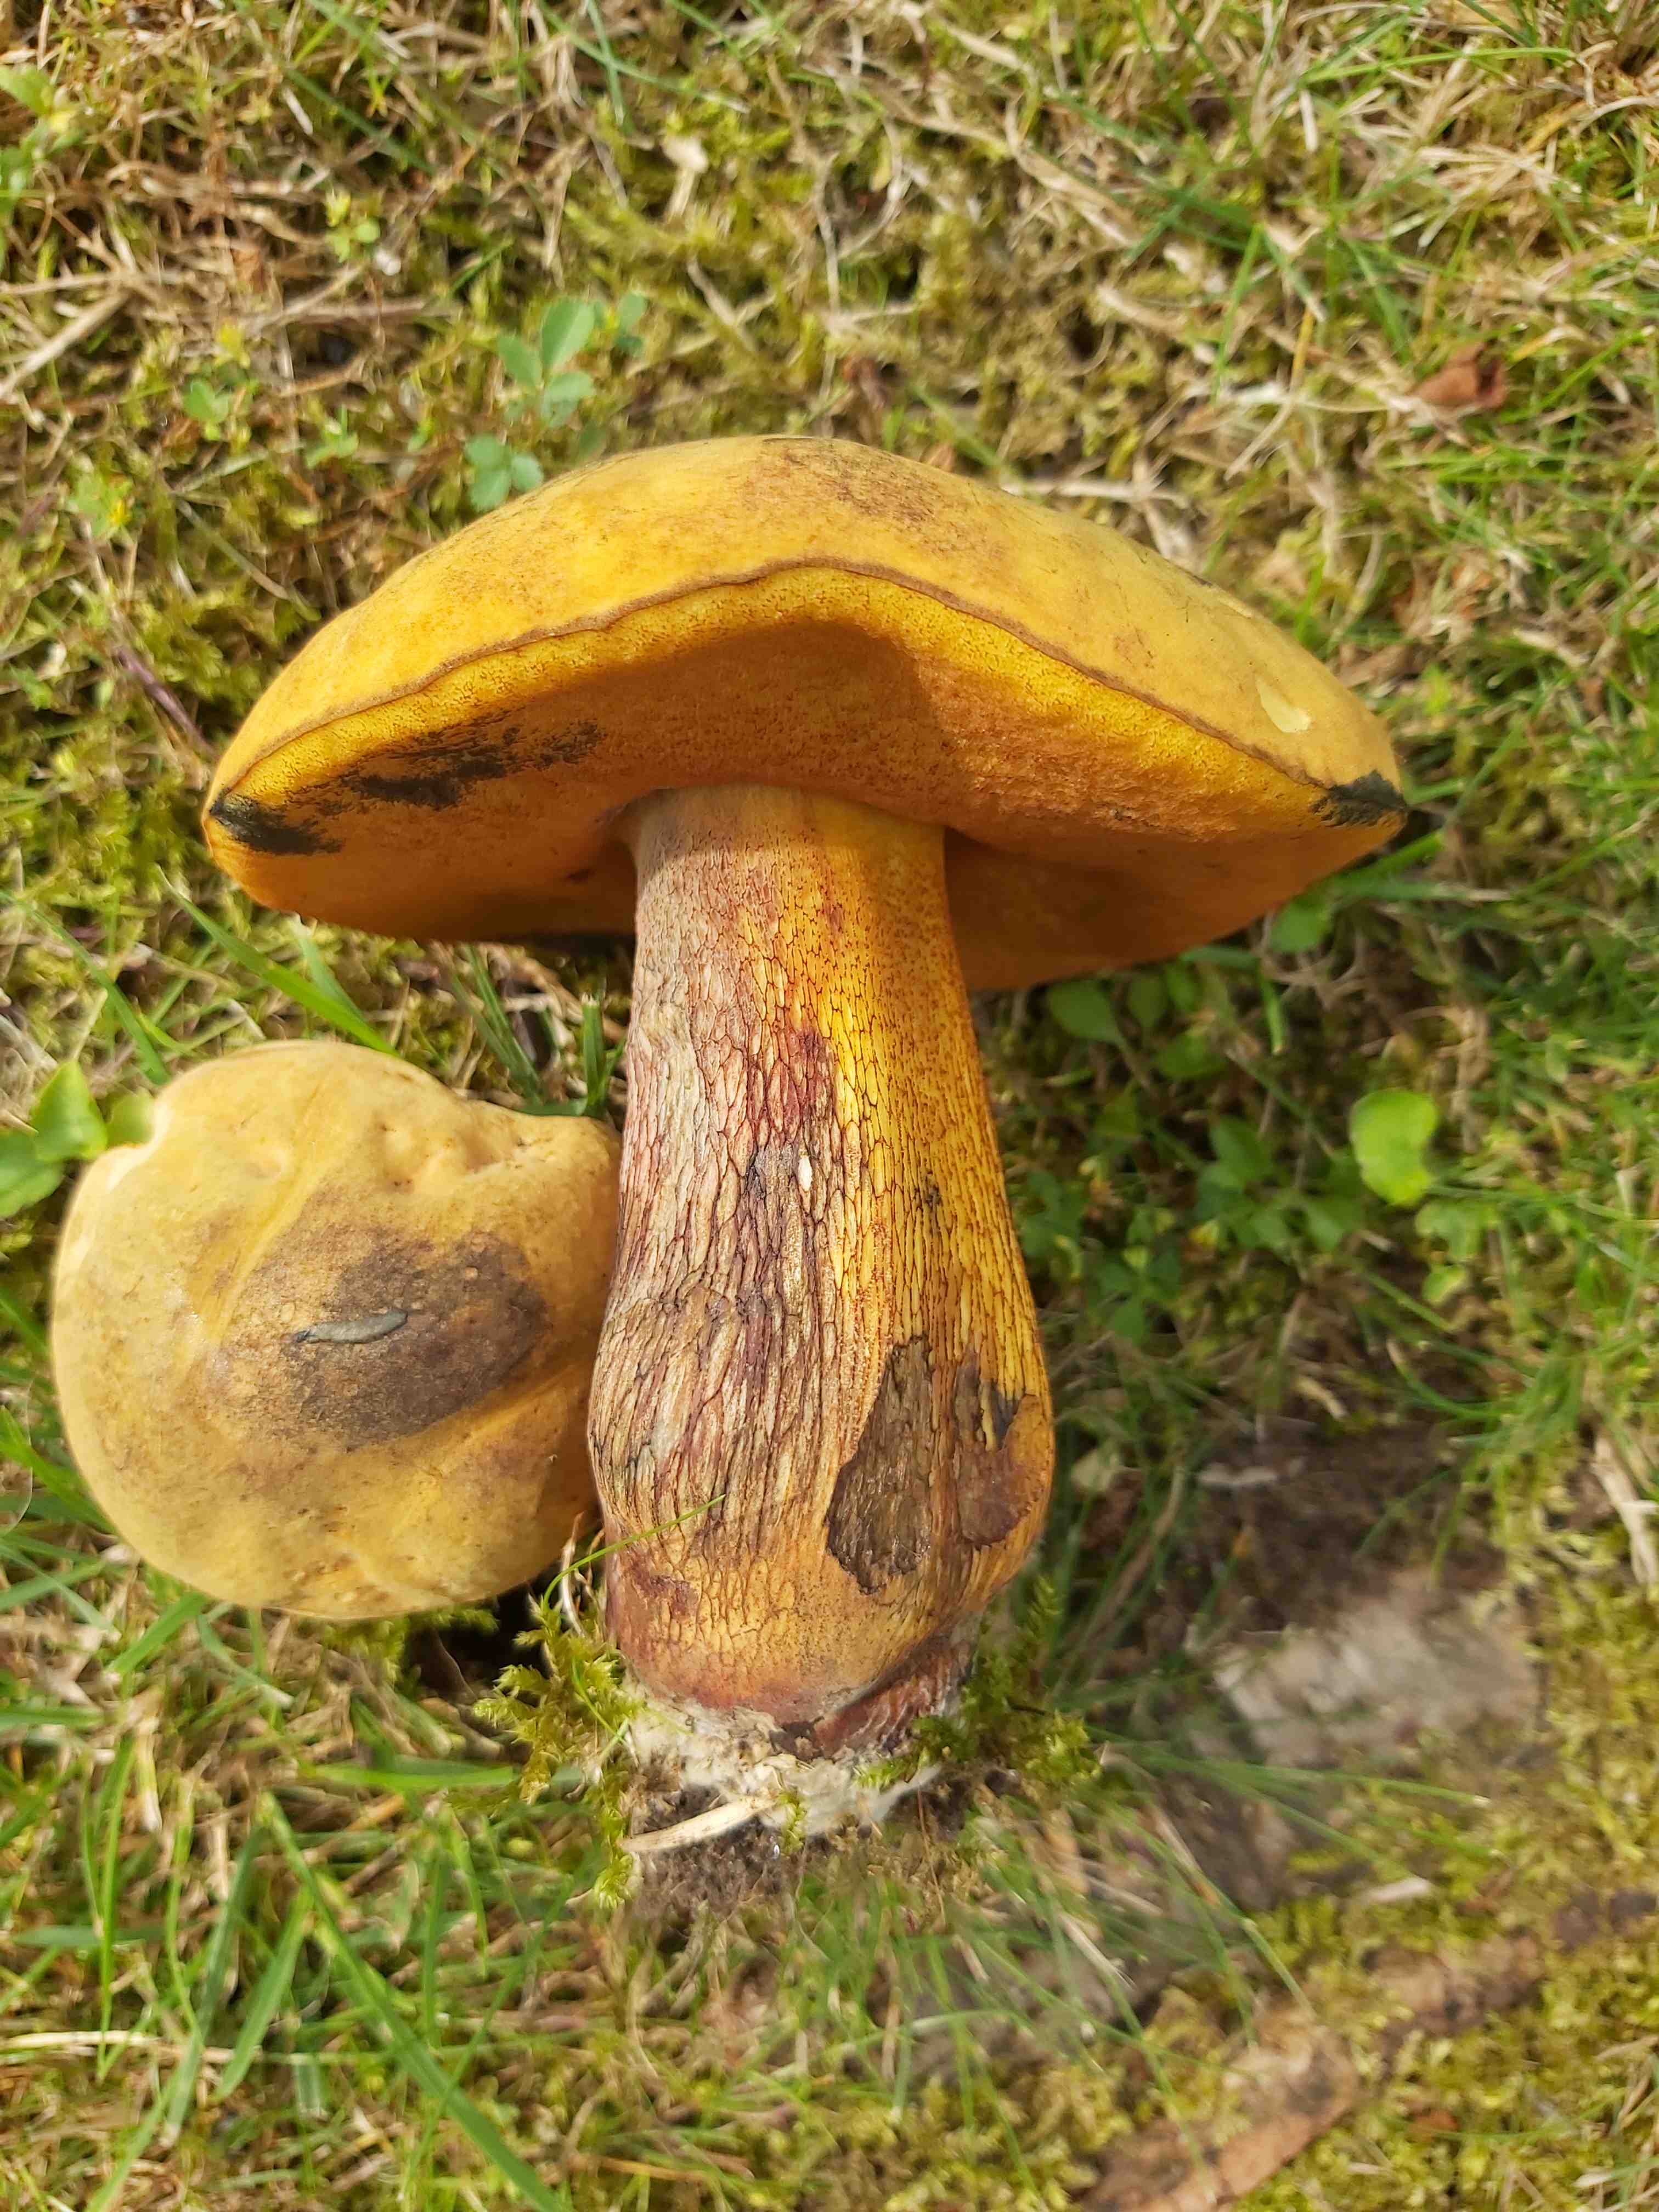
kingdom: Fungi
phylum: Basidiomycota
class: Agaricomycetes
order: Boletales
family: Boletaceae
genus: Suillellus
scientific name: Suillellus luridus
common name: netstokket indigorørhat
